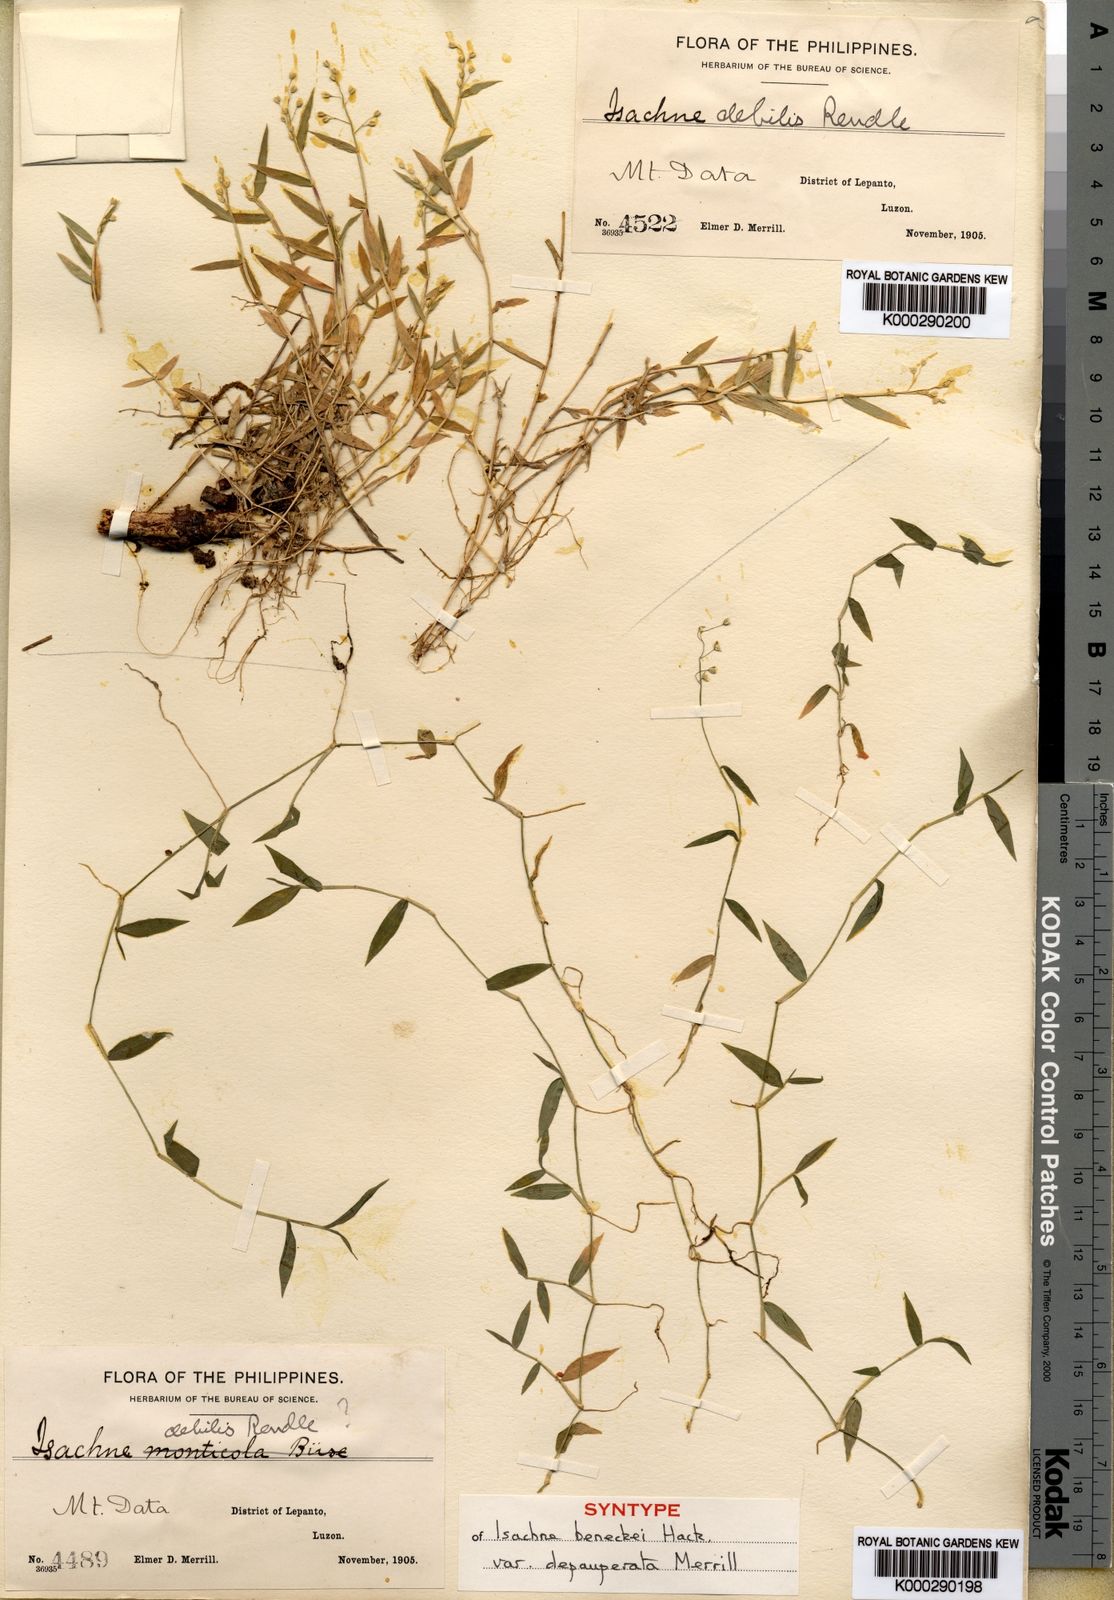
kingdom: Plantae
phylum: Tracheophyta
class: Liliopsida
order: Poales
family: Poaceae
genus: Isachne
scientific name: Isachne myosotis
